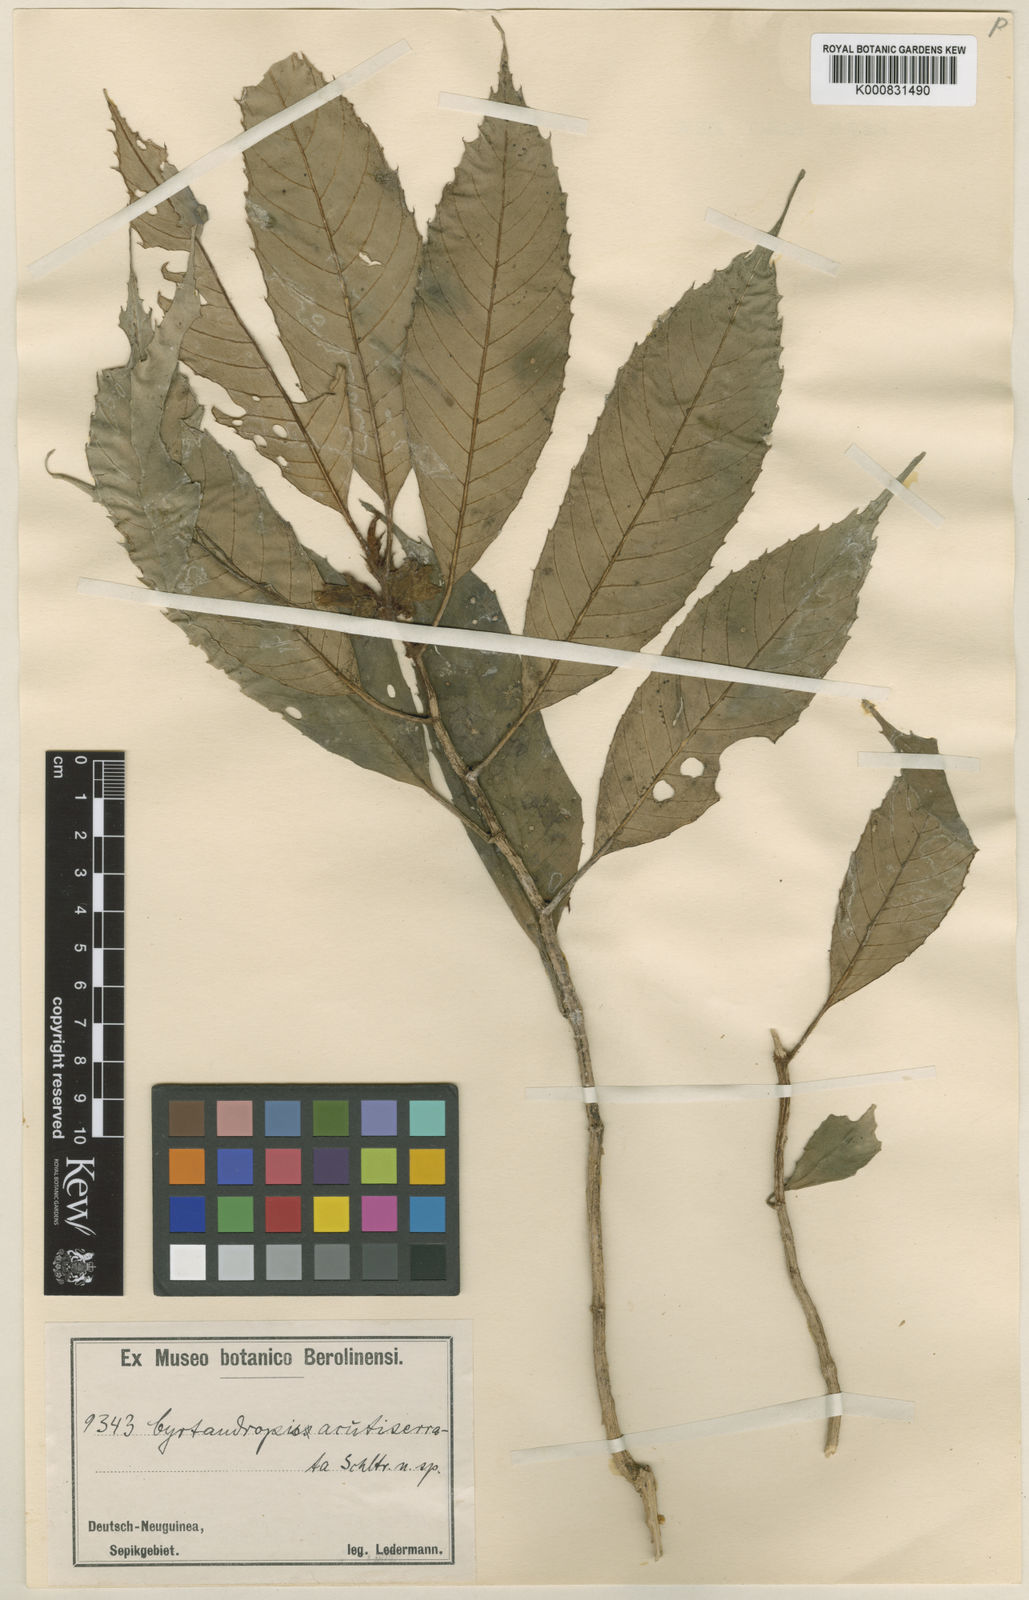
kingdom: Plantae
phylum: Tracheophyta
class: Magnoliopsida
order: Lamiales
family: Gesneriaceae
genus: Cyrtandra
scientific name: Cyrtandra
